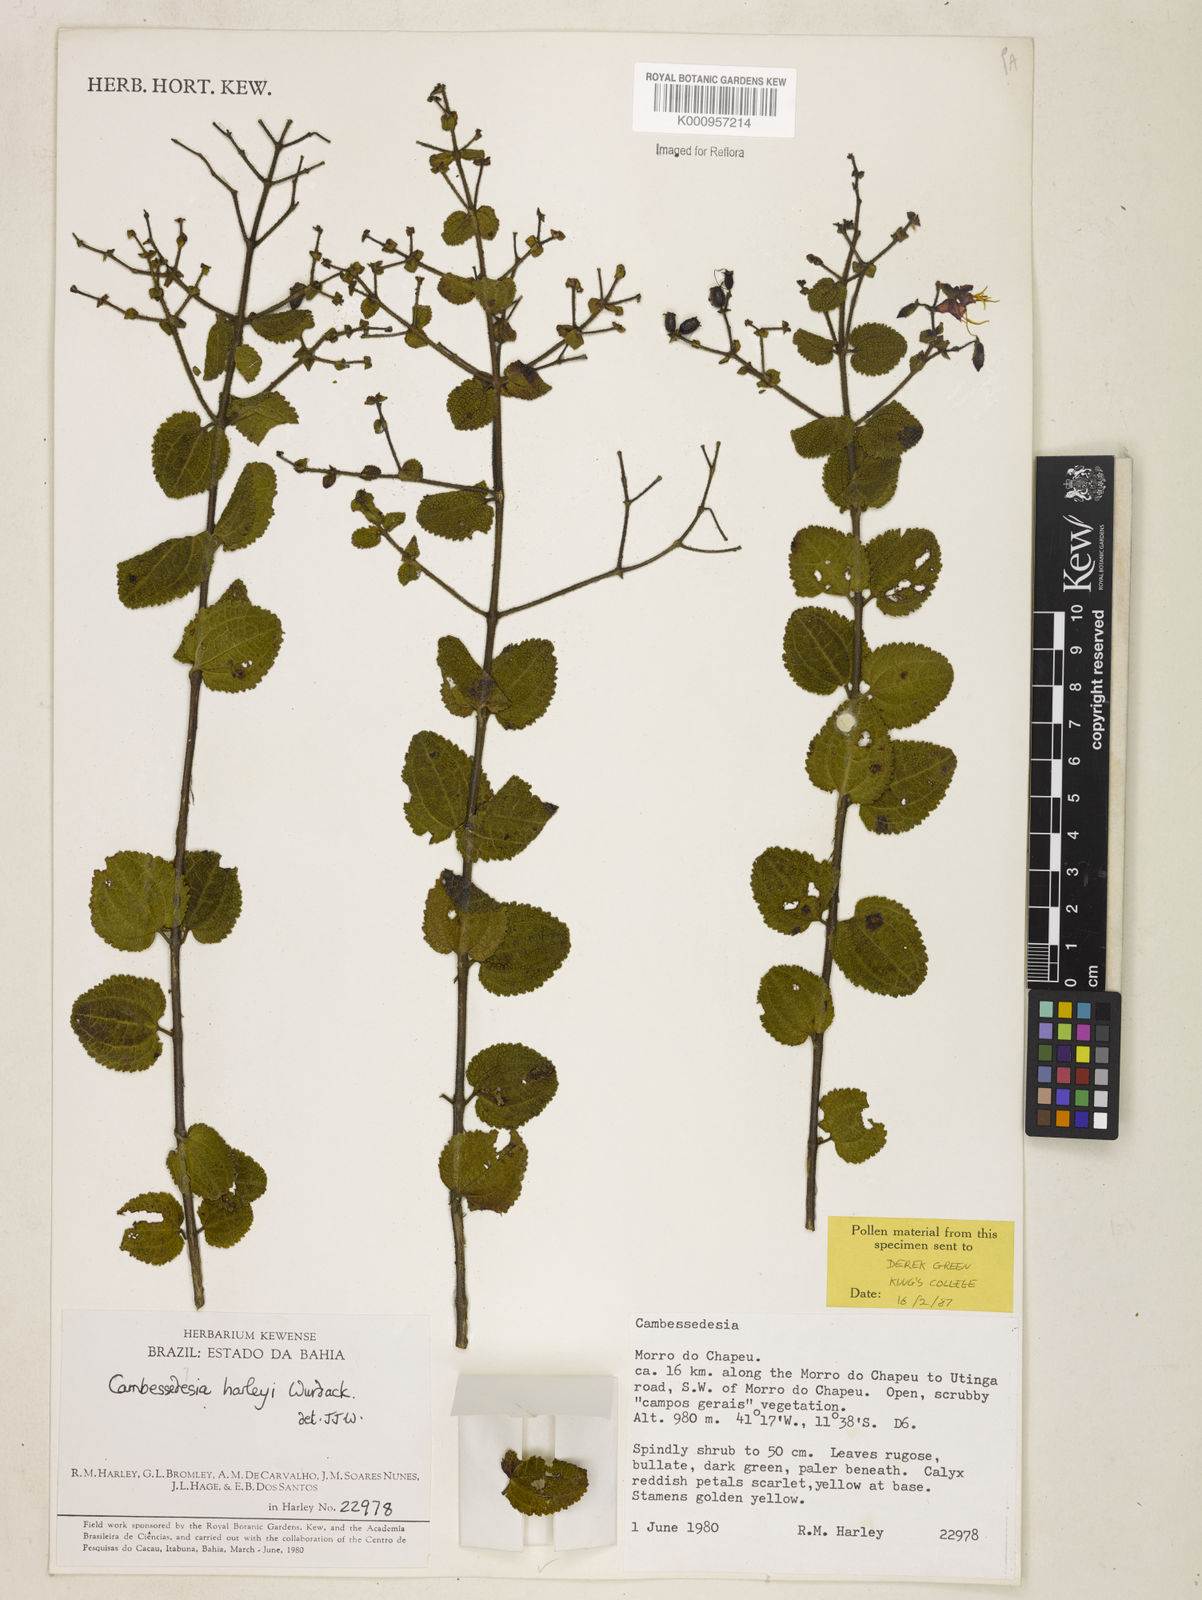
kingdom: Plantae
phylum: Tracheophyta
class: Magnoliopsida
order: Myrtales
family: Melastomataceae
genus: Cambessedesia
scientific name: Cambessedesia harleyi
